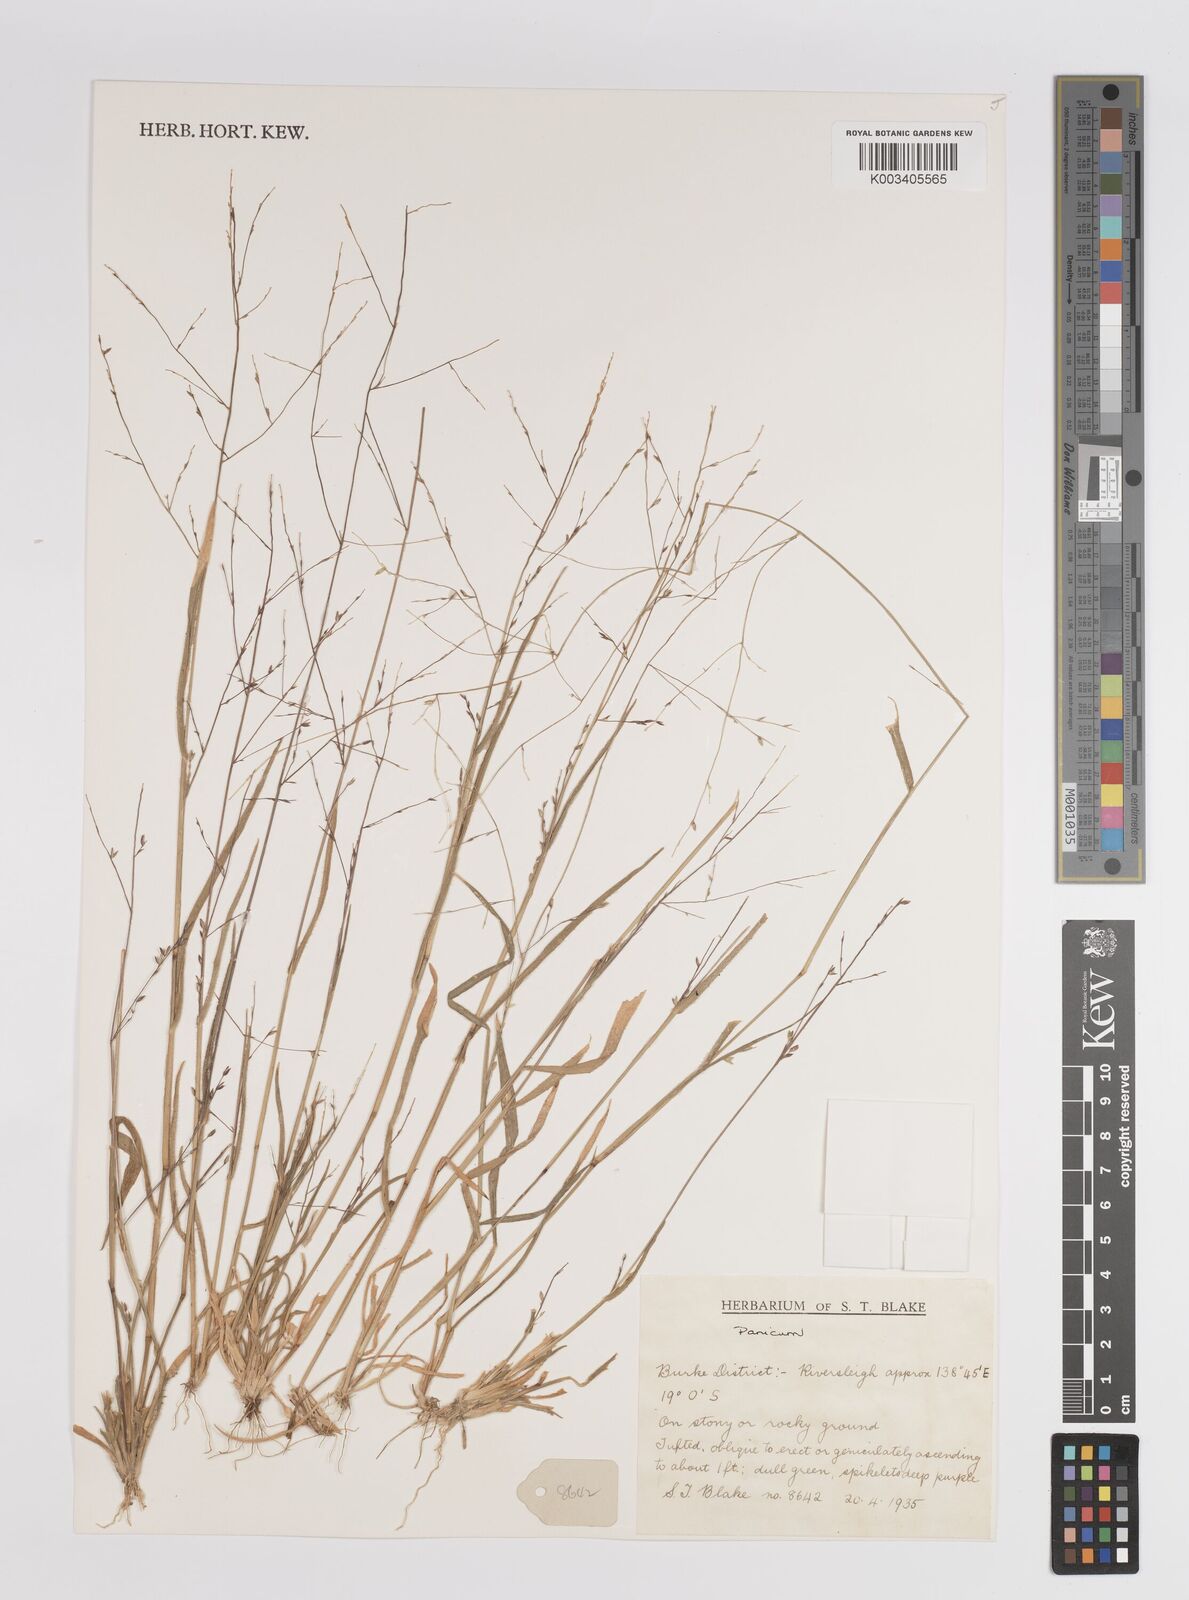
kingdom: Plantae
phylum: Tracheophyta
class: Liliopsida
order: Poales
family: Poaceae
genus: Panicum
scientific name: Panicum
